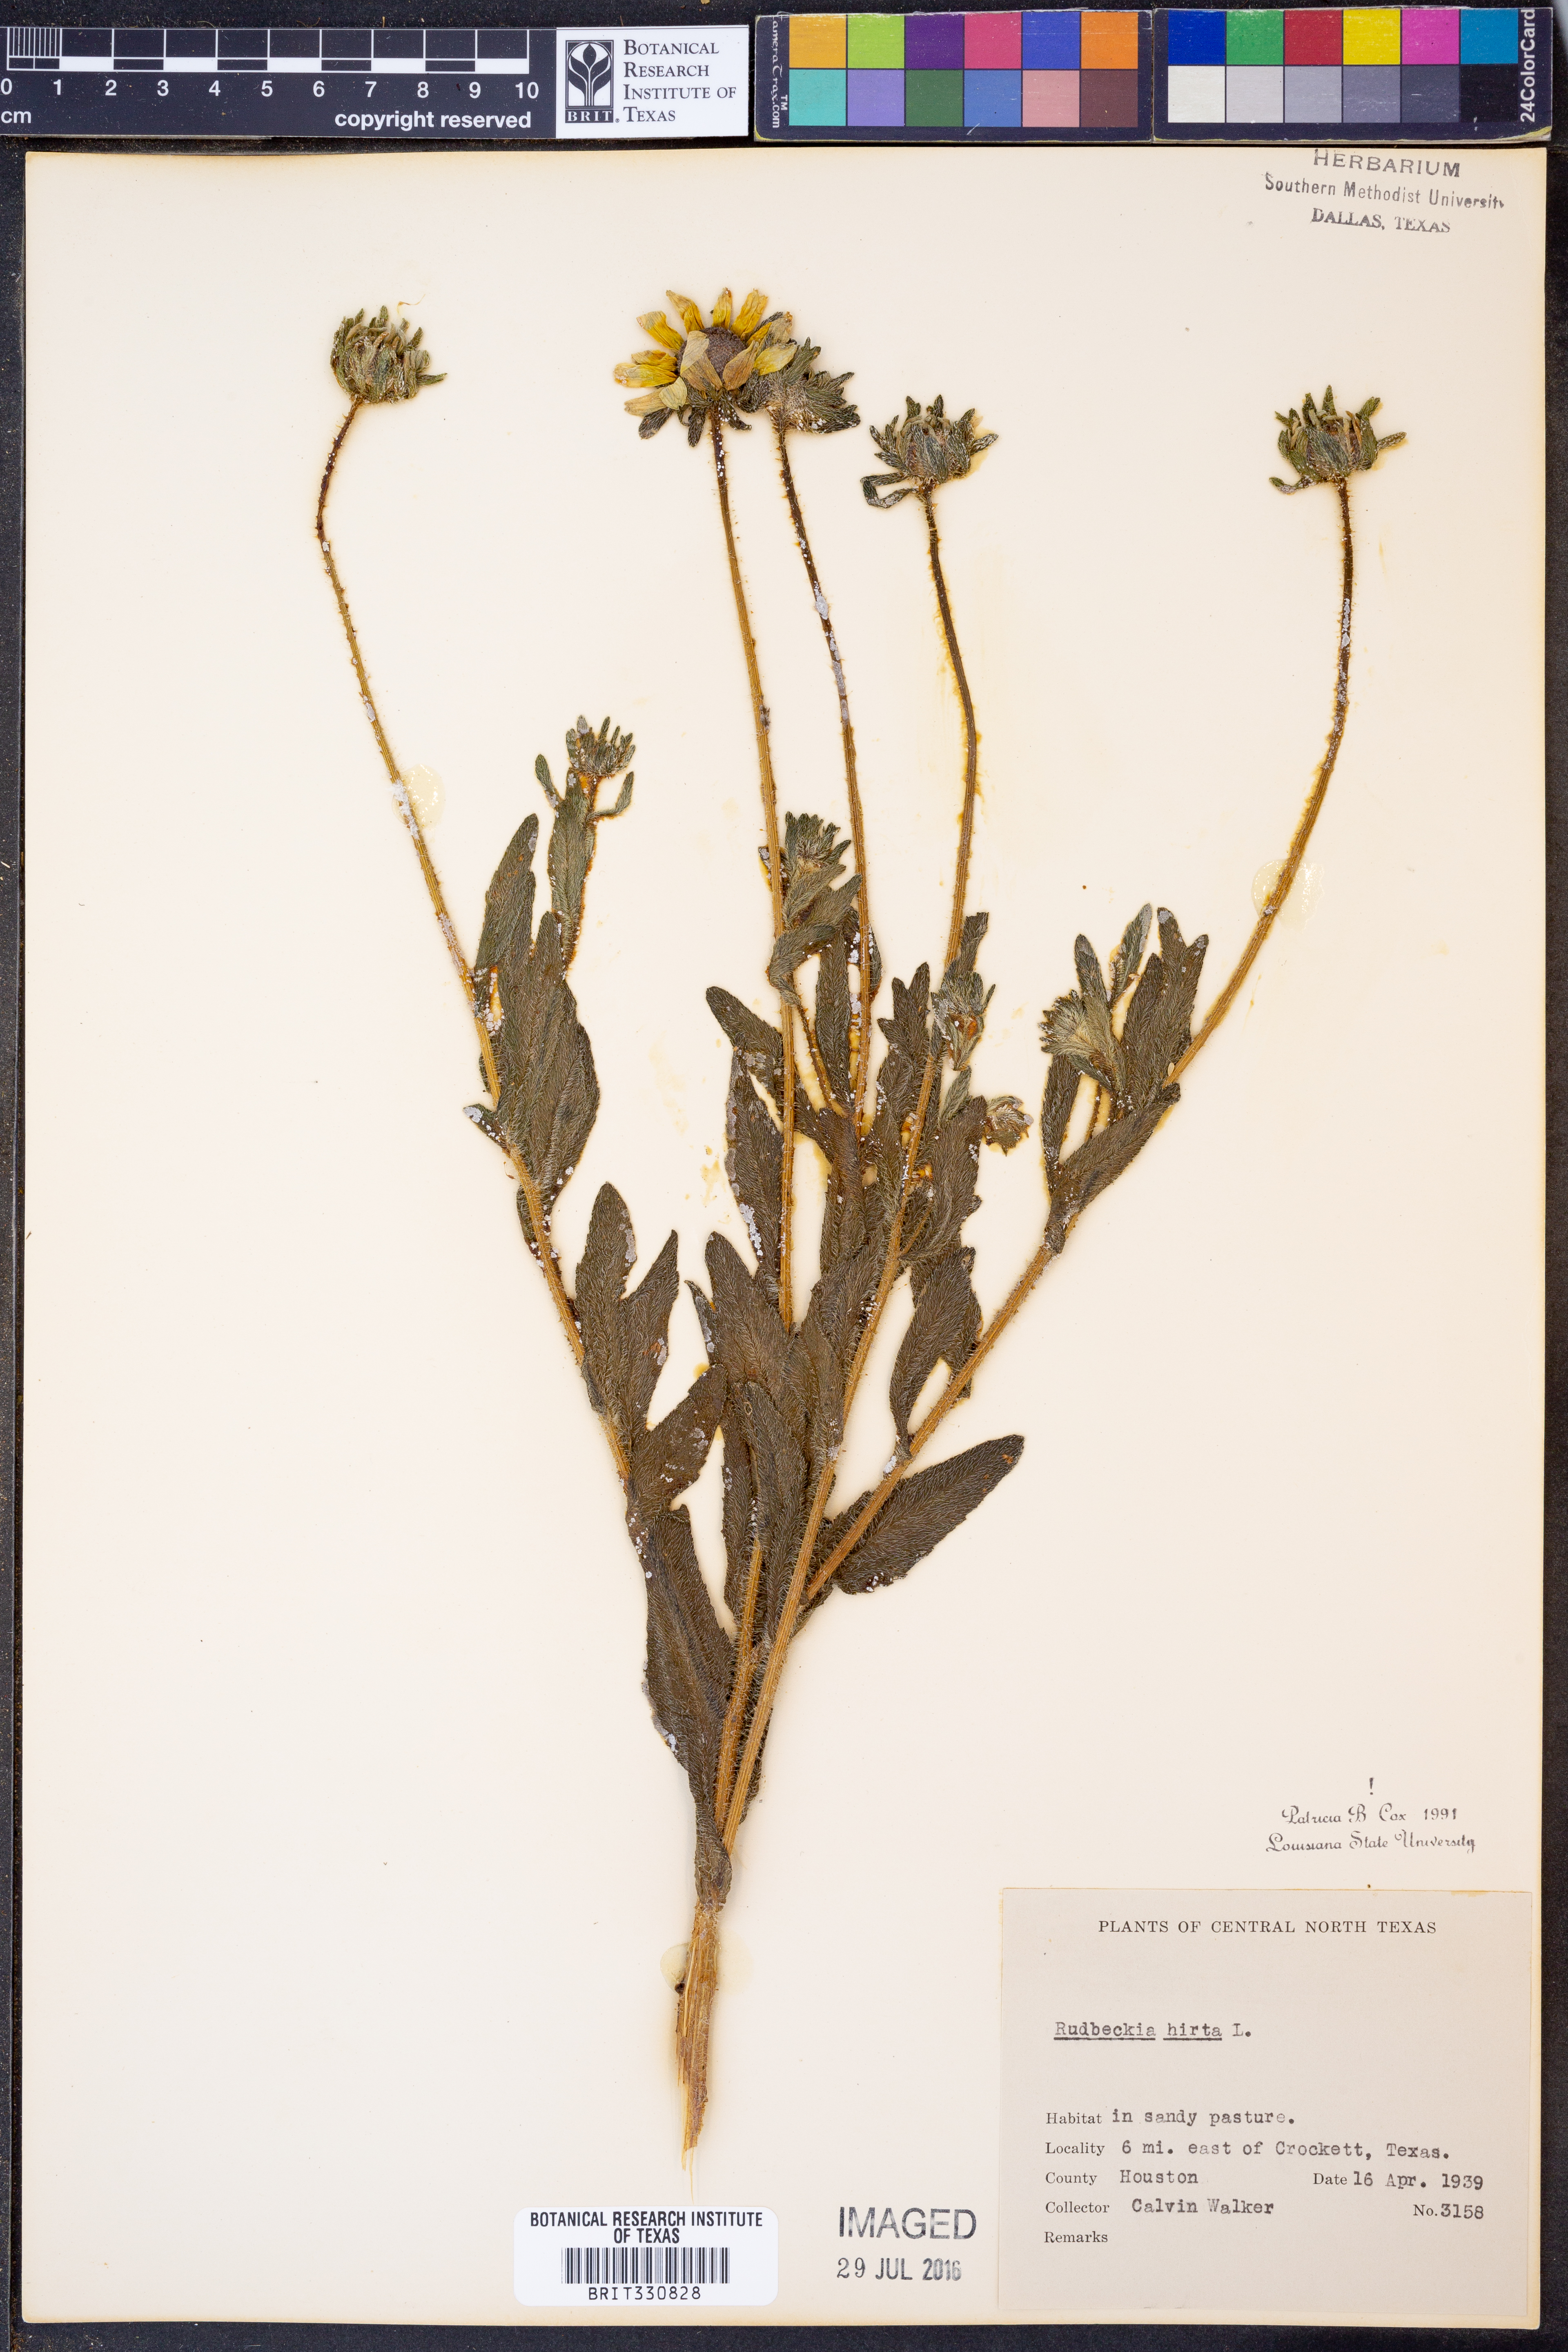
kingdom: Plantae
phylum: Tracheophyta
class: Magnoliopsida
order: Asterales
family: Asteraceae
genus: Rudbeckia
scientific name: Rudbeckia hirta
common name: Black-eyed-susan
